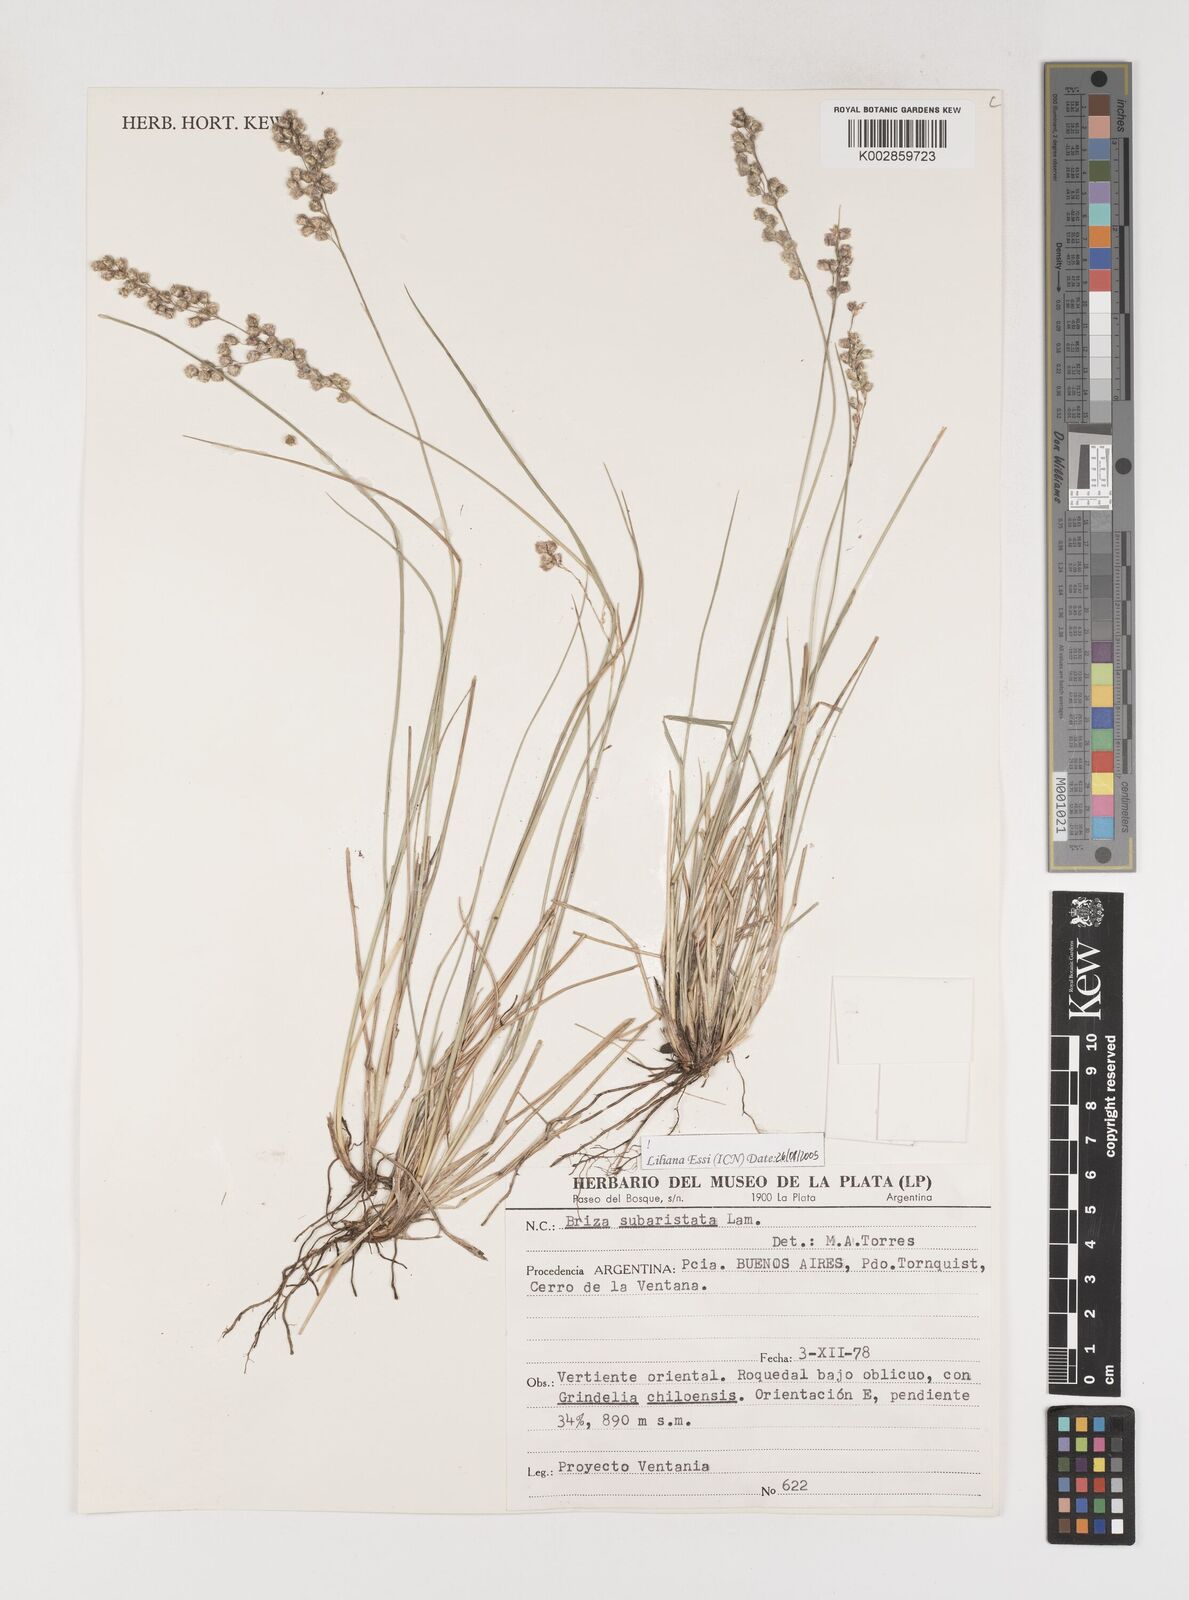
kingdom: Plantae
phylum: Tracheophyta
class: Liliopsida
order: Poales
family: Poaceae
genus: Chascolytrum
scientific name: Chascolytrum subaristatum
